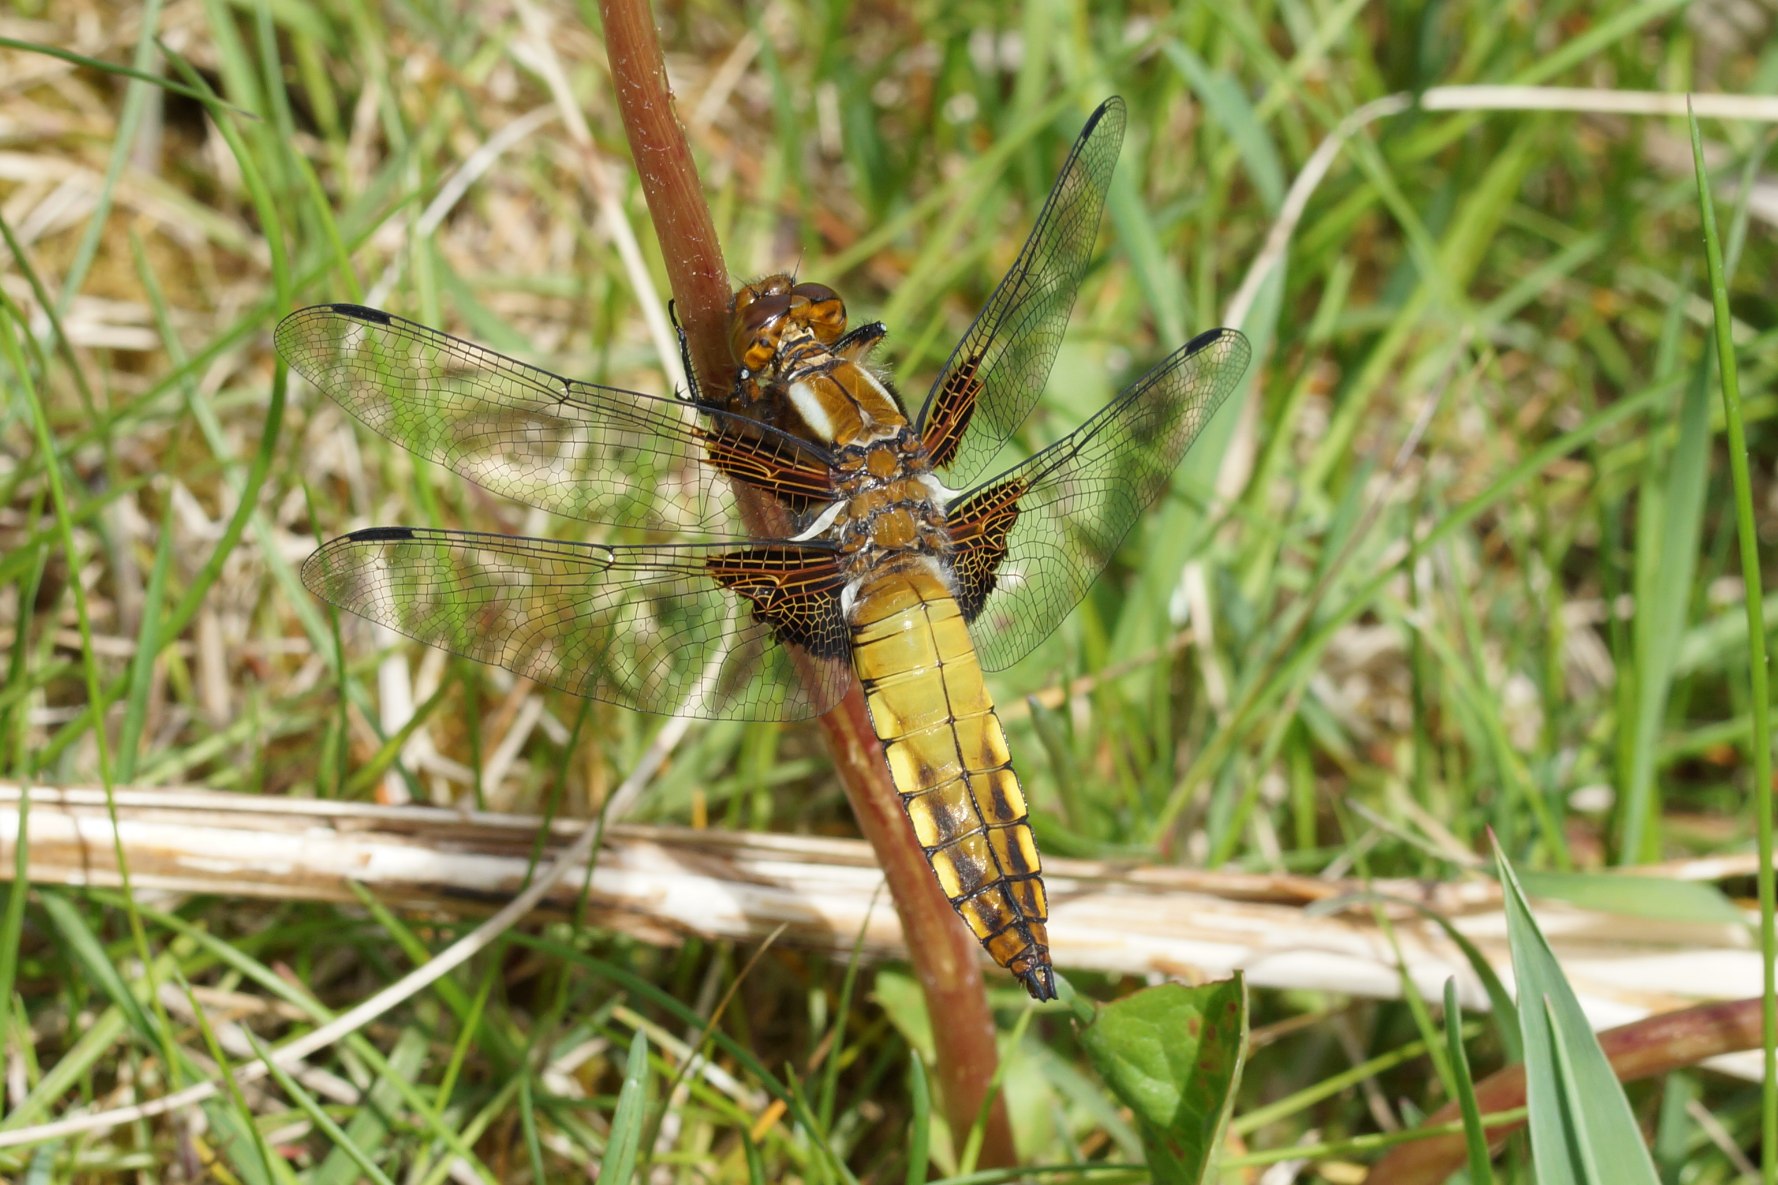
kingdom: Animalia
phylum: Arthropoda
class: Insecta
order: Odonata
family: Libellulidae
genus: Libellula
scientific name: Libellula depressa
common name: Blå libel
